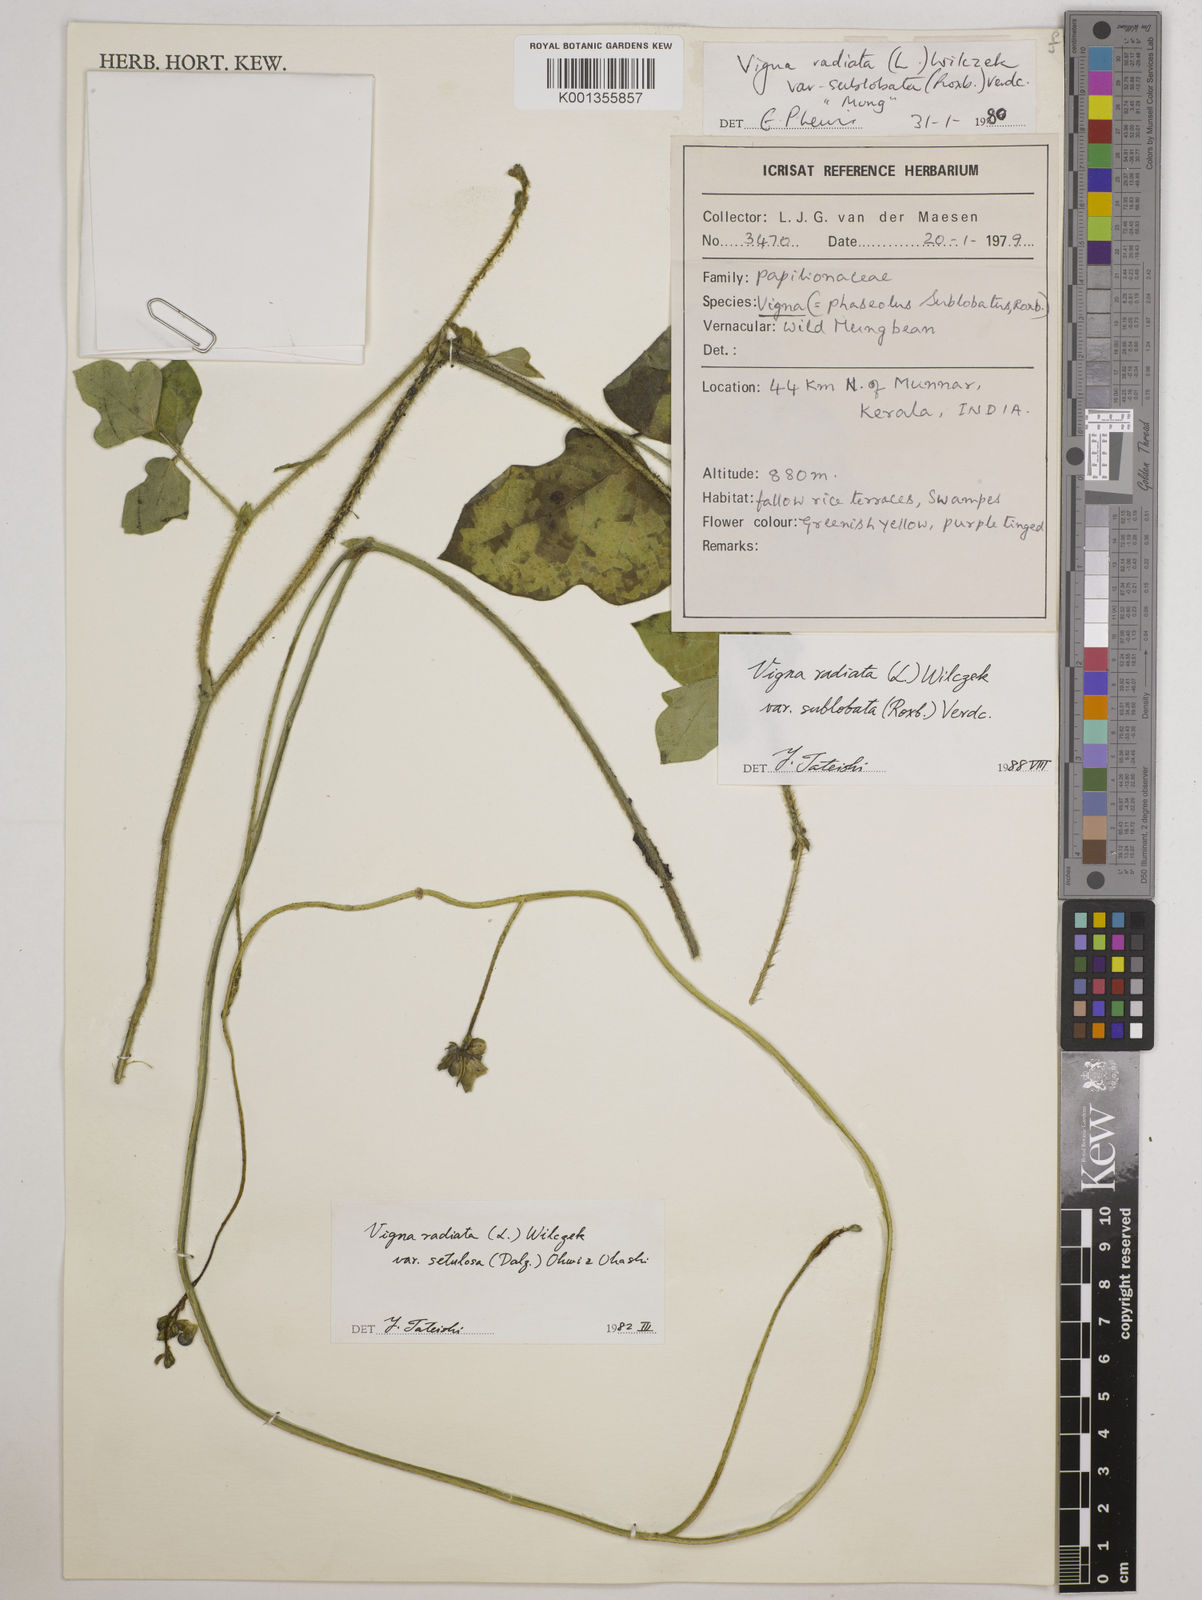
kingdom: Plantae
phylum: Tracheophyta
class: Magnoliopsida
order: Fabales
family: Fabaceae
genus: Vigna
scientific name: Vigna radiata
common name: Mung-bean
